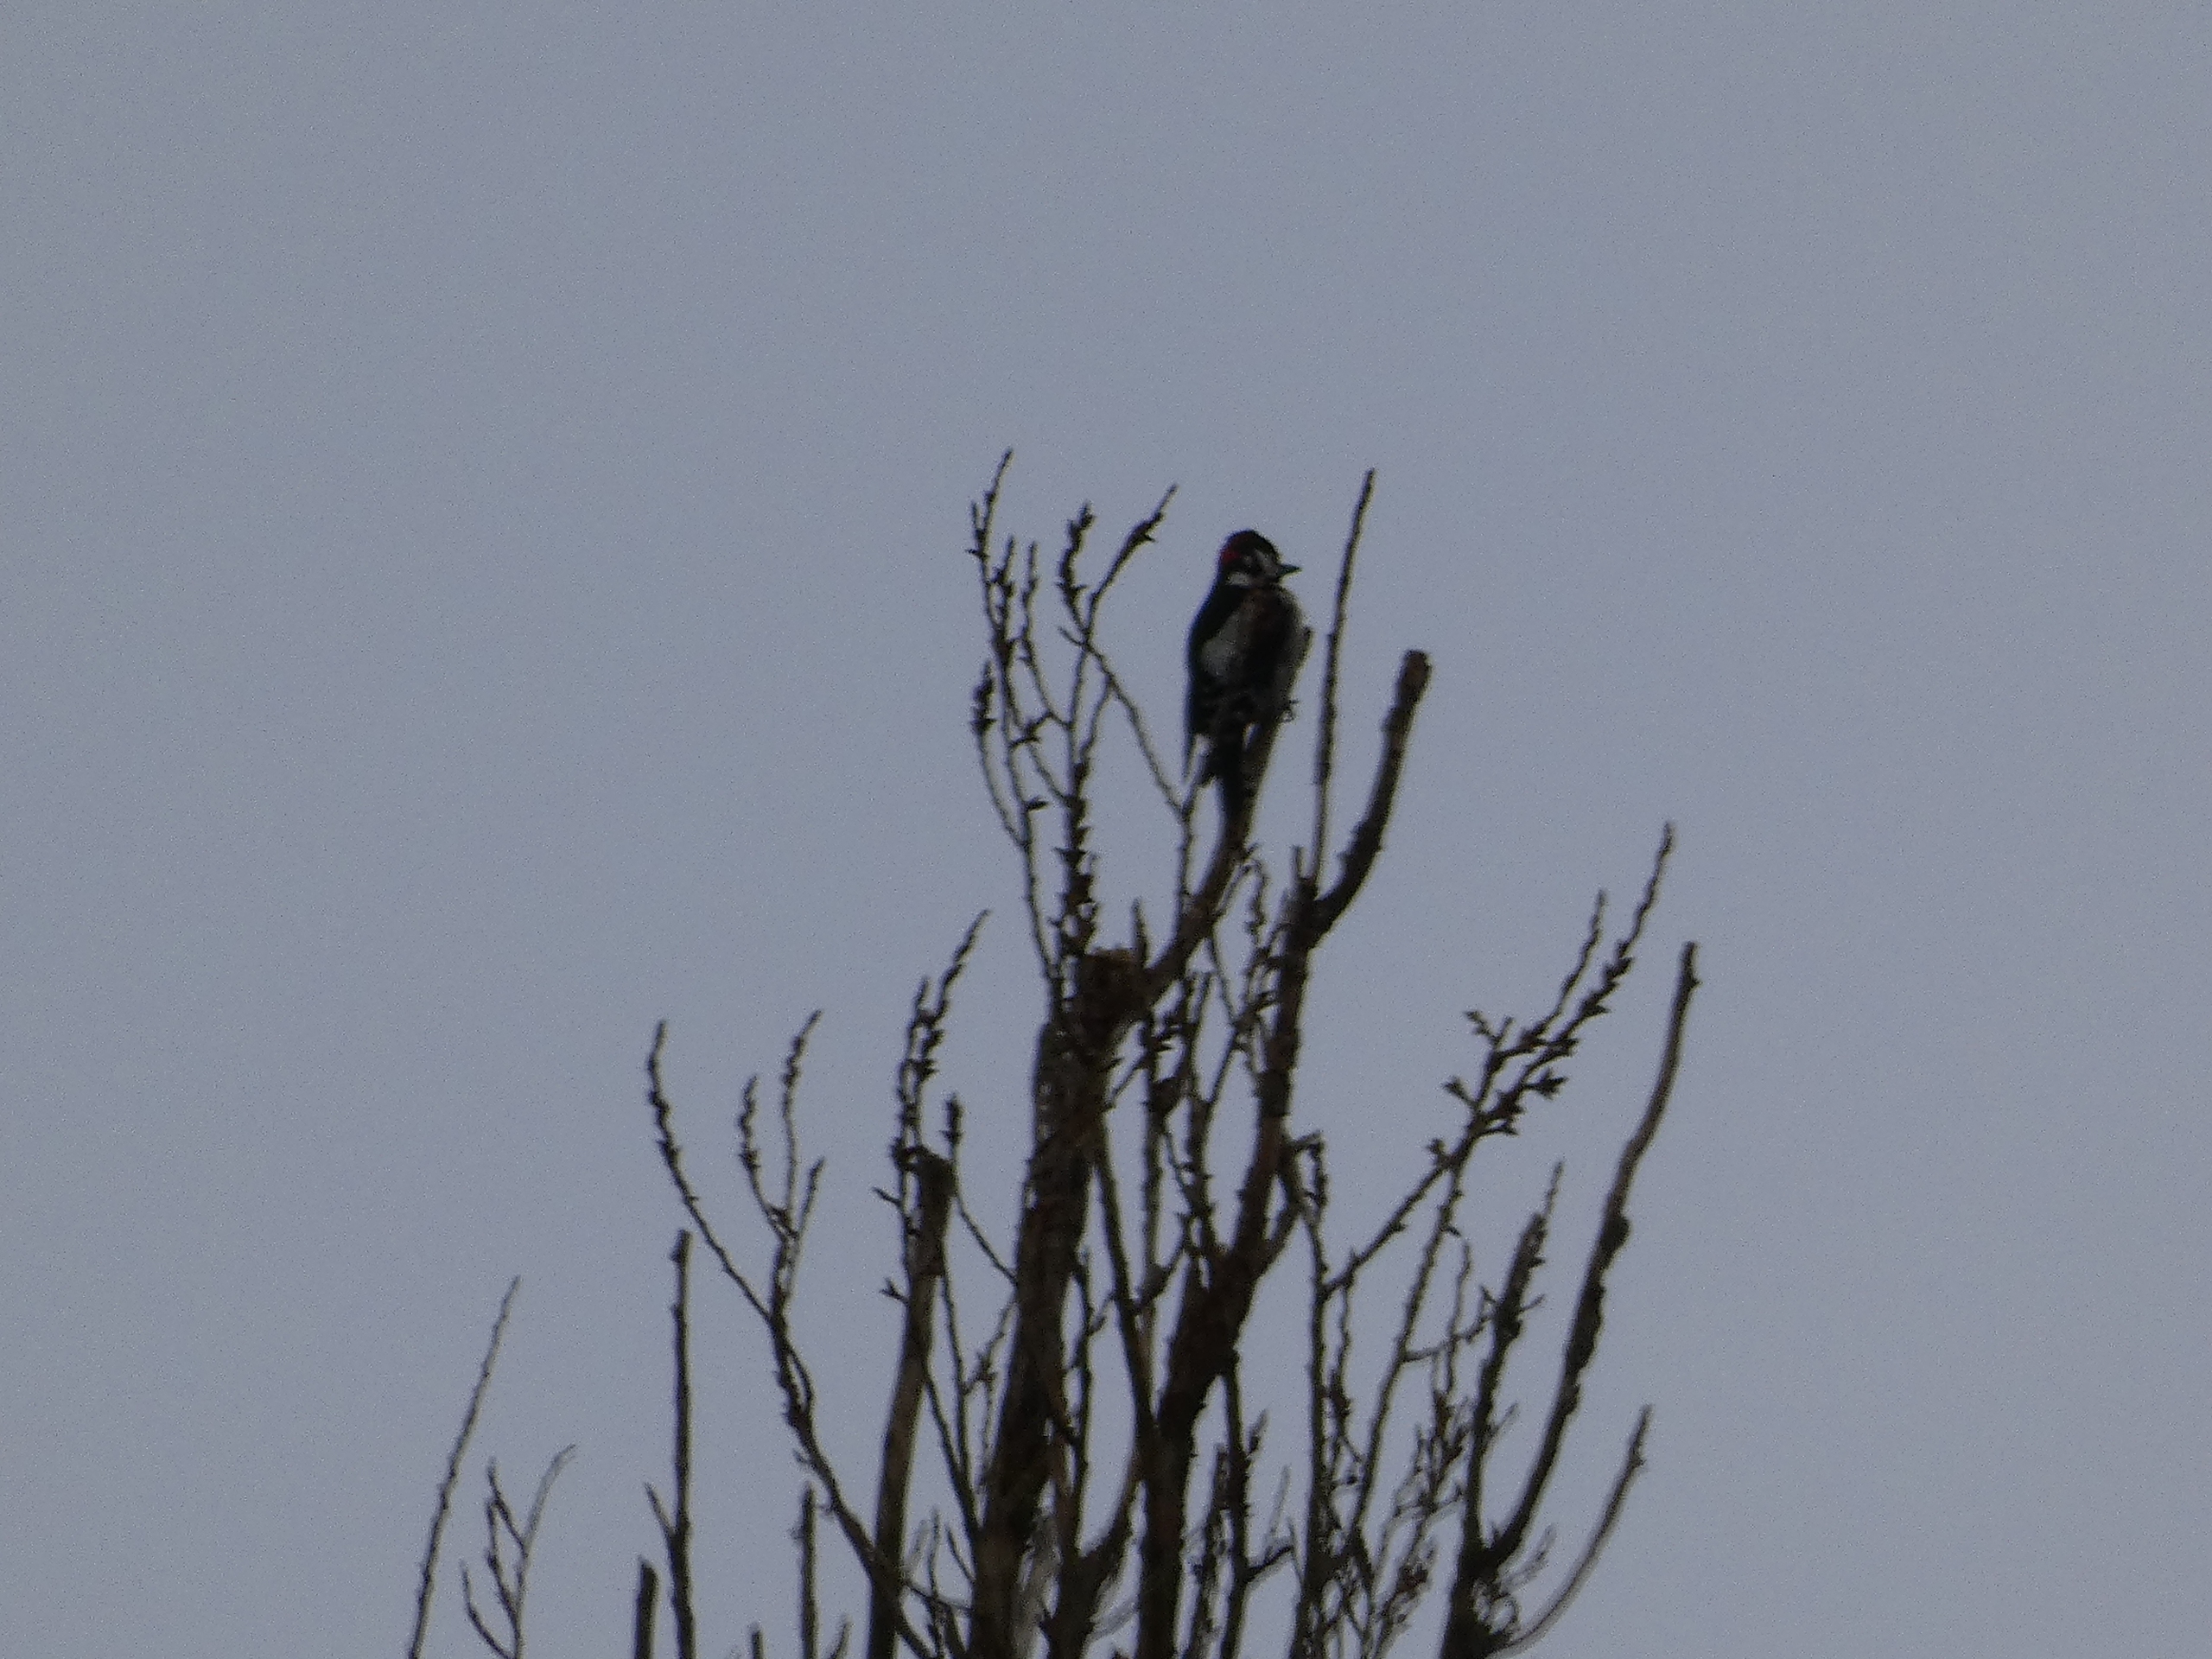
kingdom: Animalia
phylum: Chordata
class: Aves
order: Piciformes
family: Picidae
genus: Dendrocopos
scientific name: Dendrocopos major
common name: Stor flagspætte
